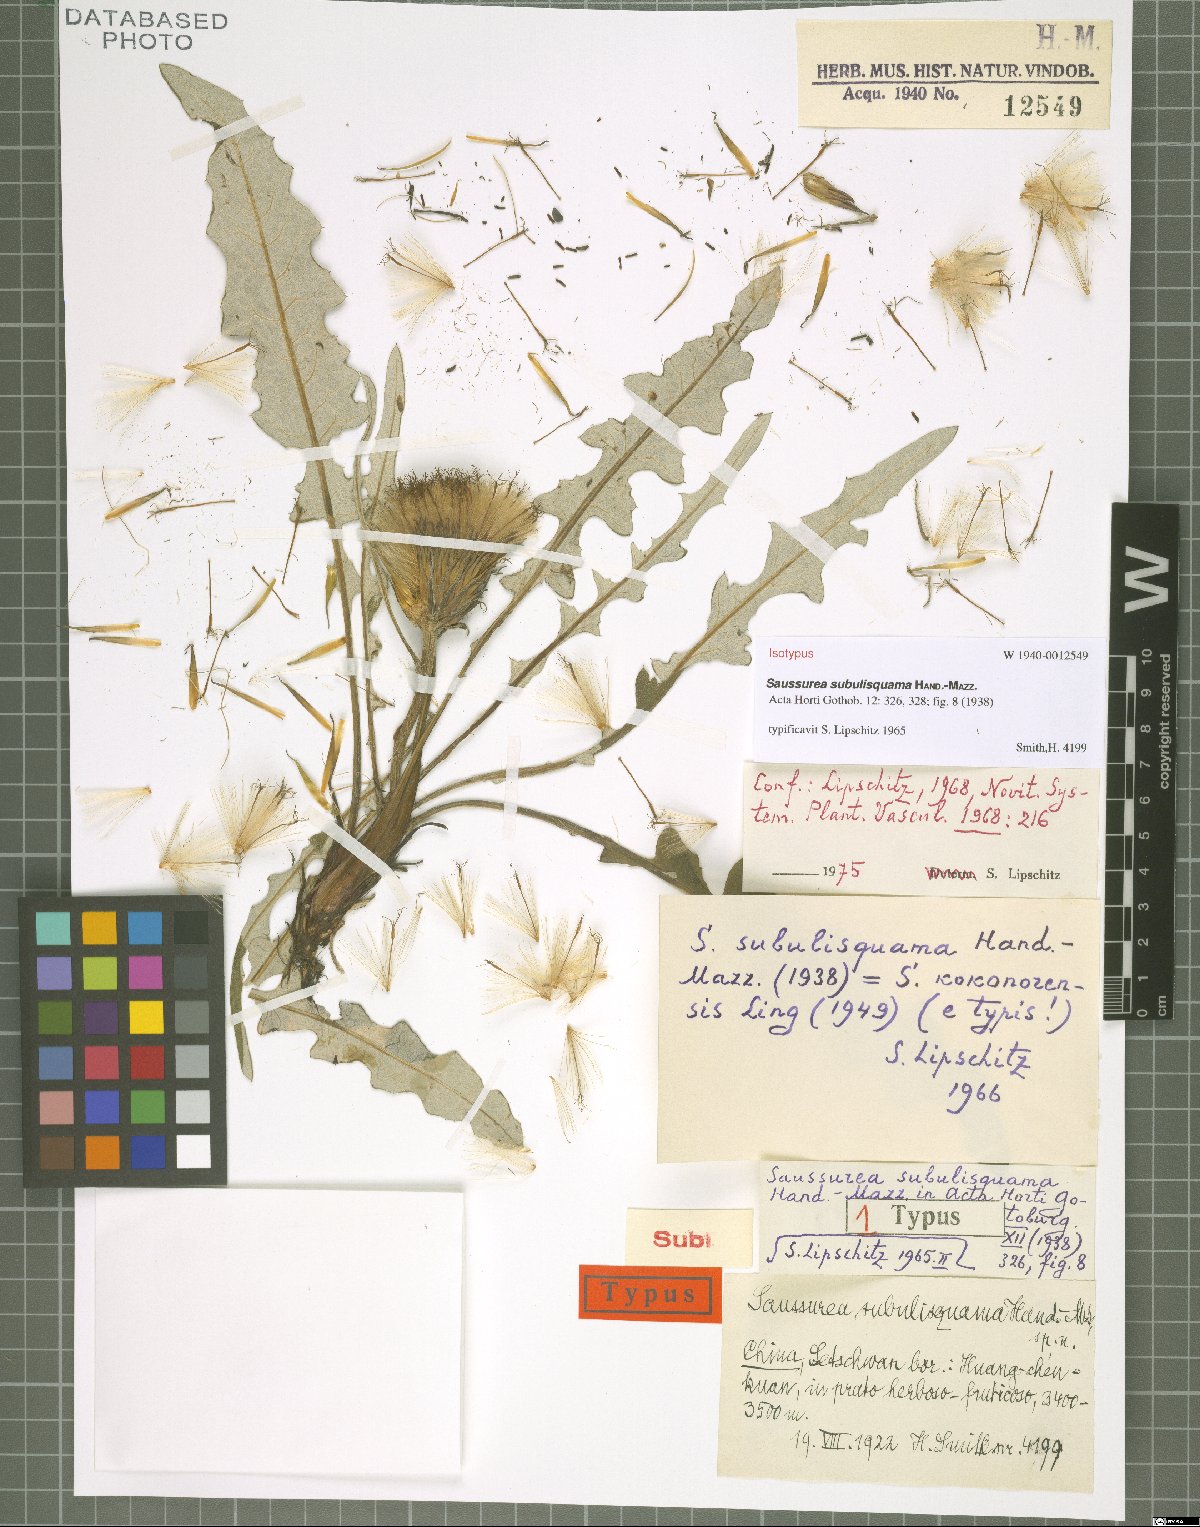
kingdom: Plantae
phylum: Tracheophyta
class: Magnoliopsida
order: Asterales
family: Asteraceae
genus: Saussurea
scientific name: Saussurea subulisquama
